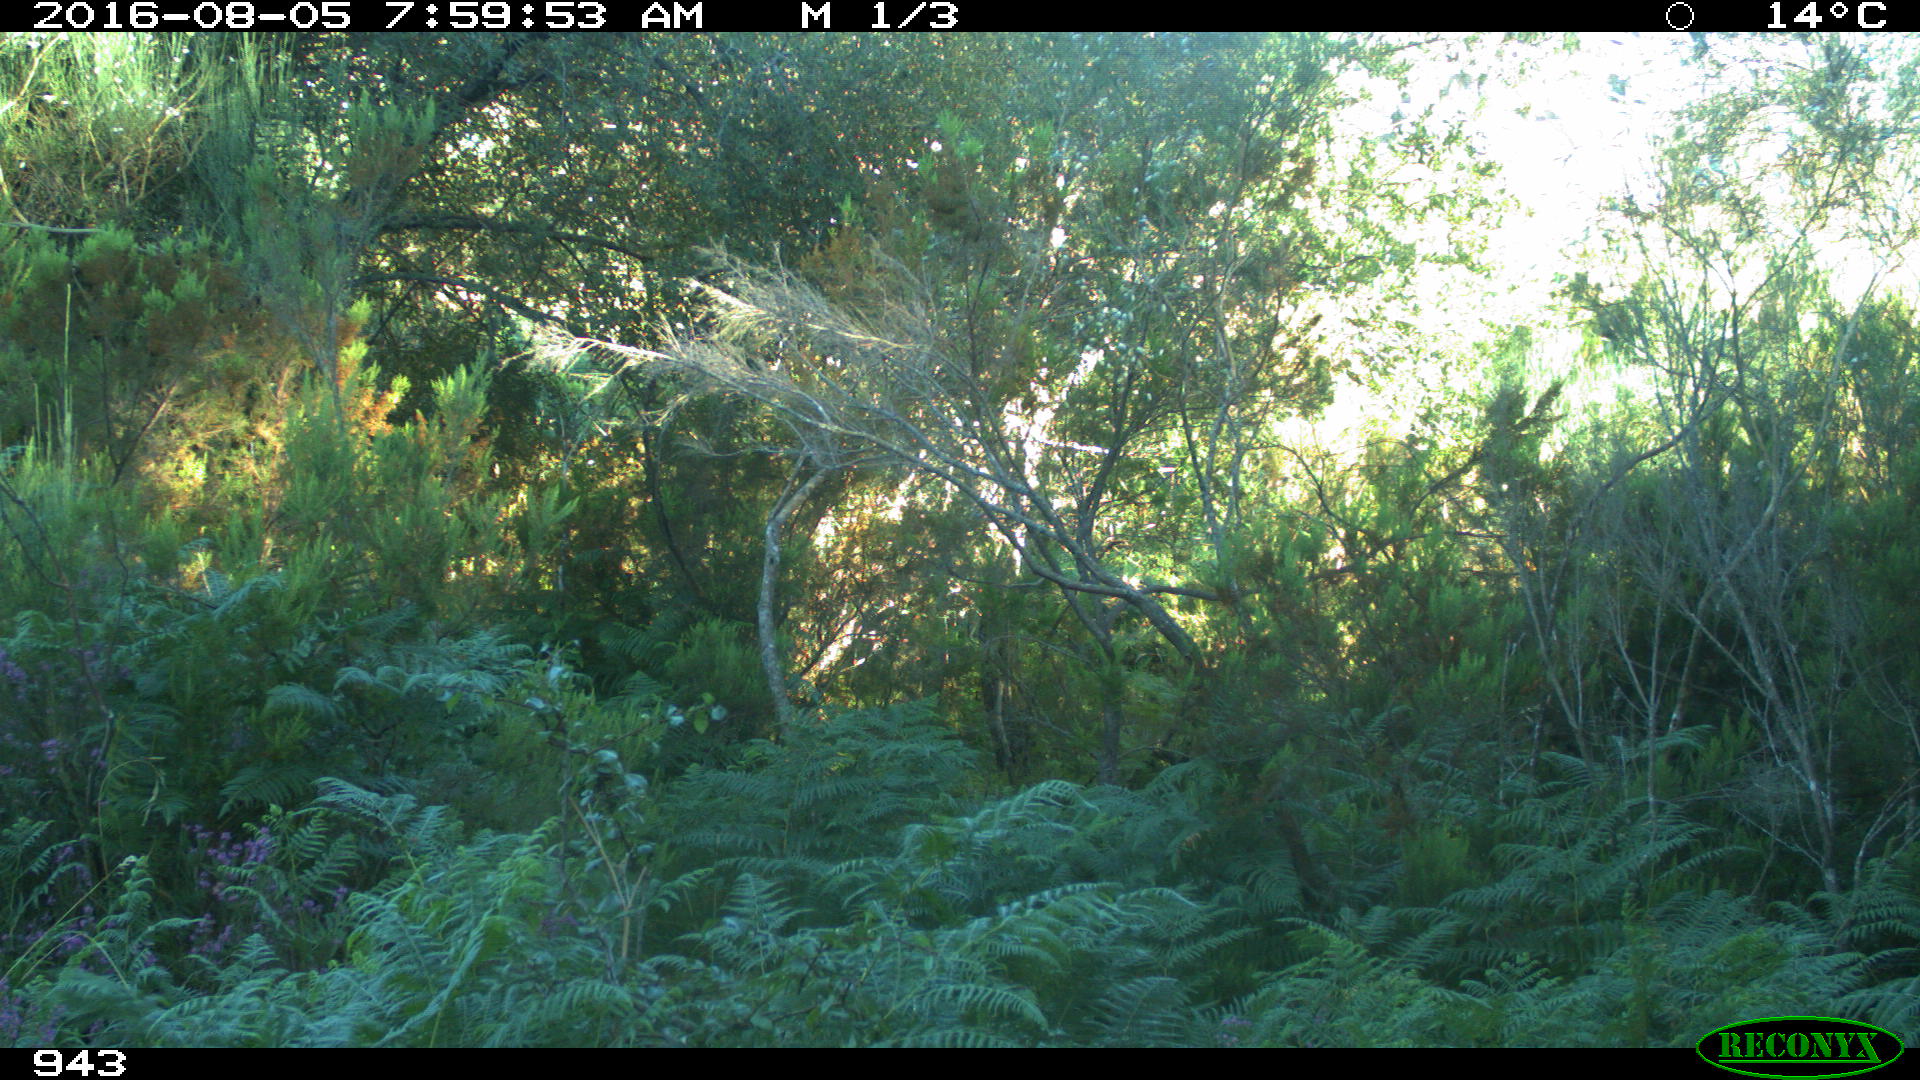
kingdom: Animalia
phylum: Chordata
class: Mammalia
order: Perissodactyla
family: Equidae
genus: Equus
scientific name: Equus caballus
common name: Horse
